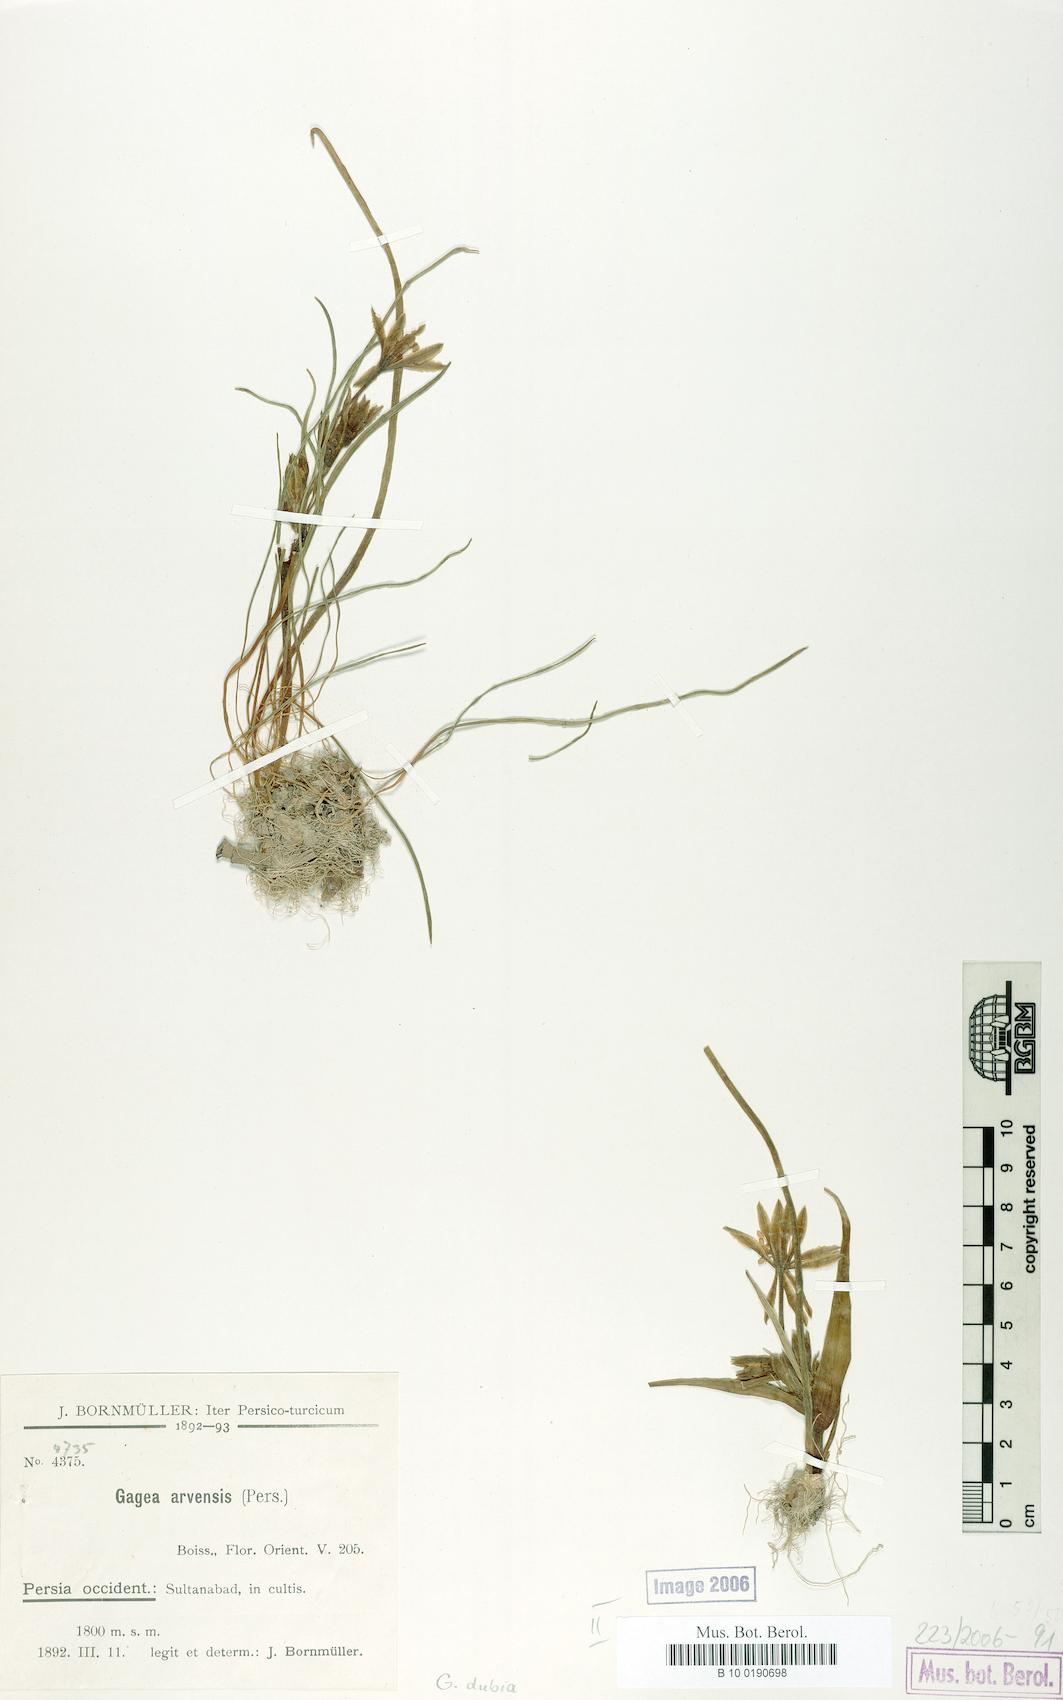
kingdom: Plantae
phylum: Tracheophyta
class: Liliopsida
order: Liliales
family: Liliaceae
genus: Gagea
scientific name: Gagea dubia
